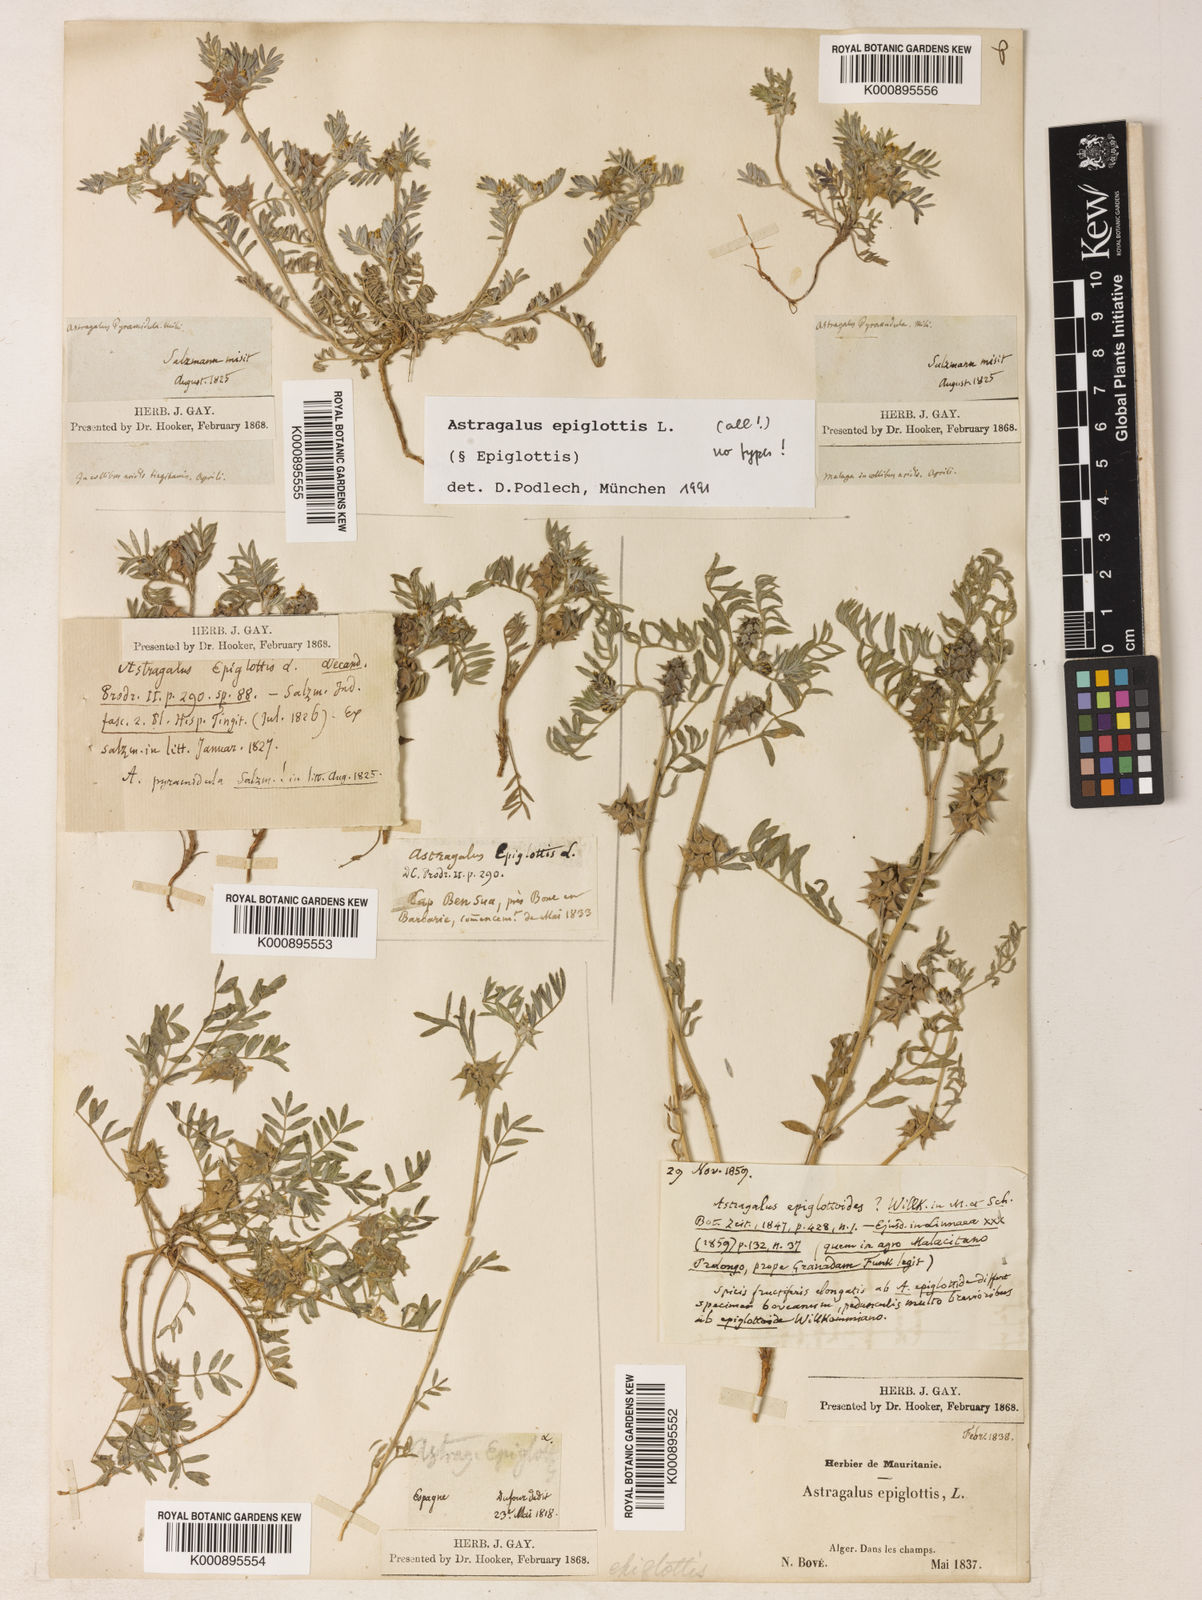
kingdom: Plantae
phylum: Tracheophyta
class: Magnoliopsida
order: Fabales
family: Fabaceae
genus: Biserrula
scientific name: Biserrula epiglottis
